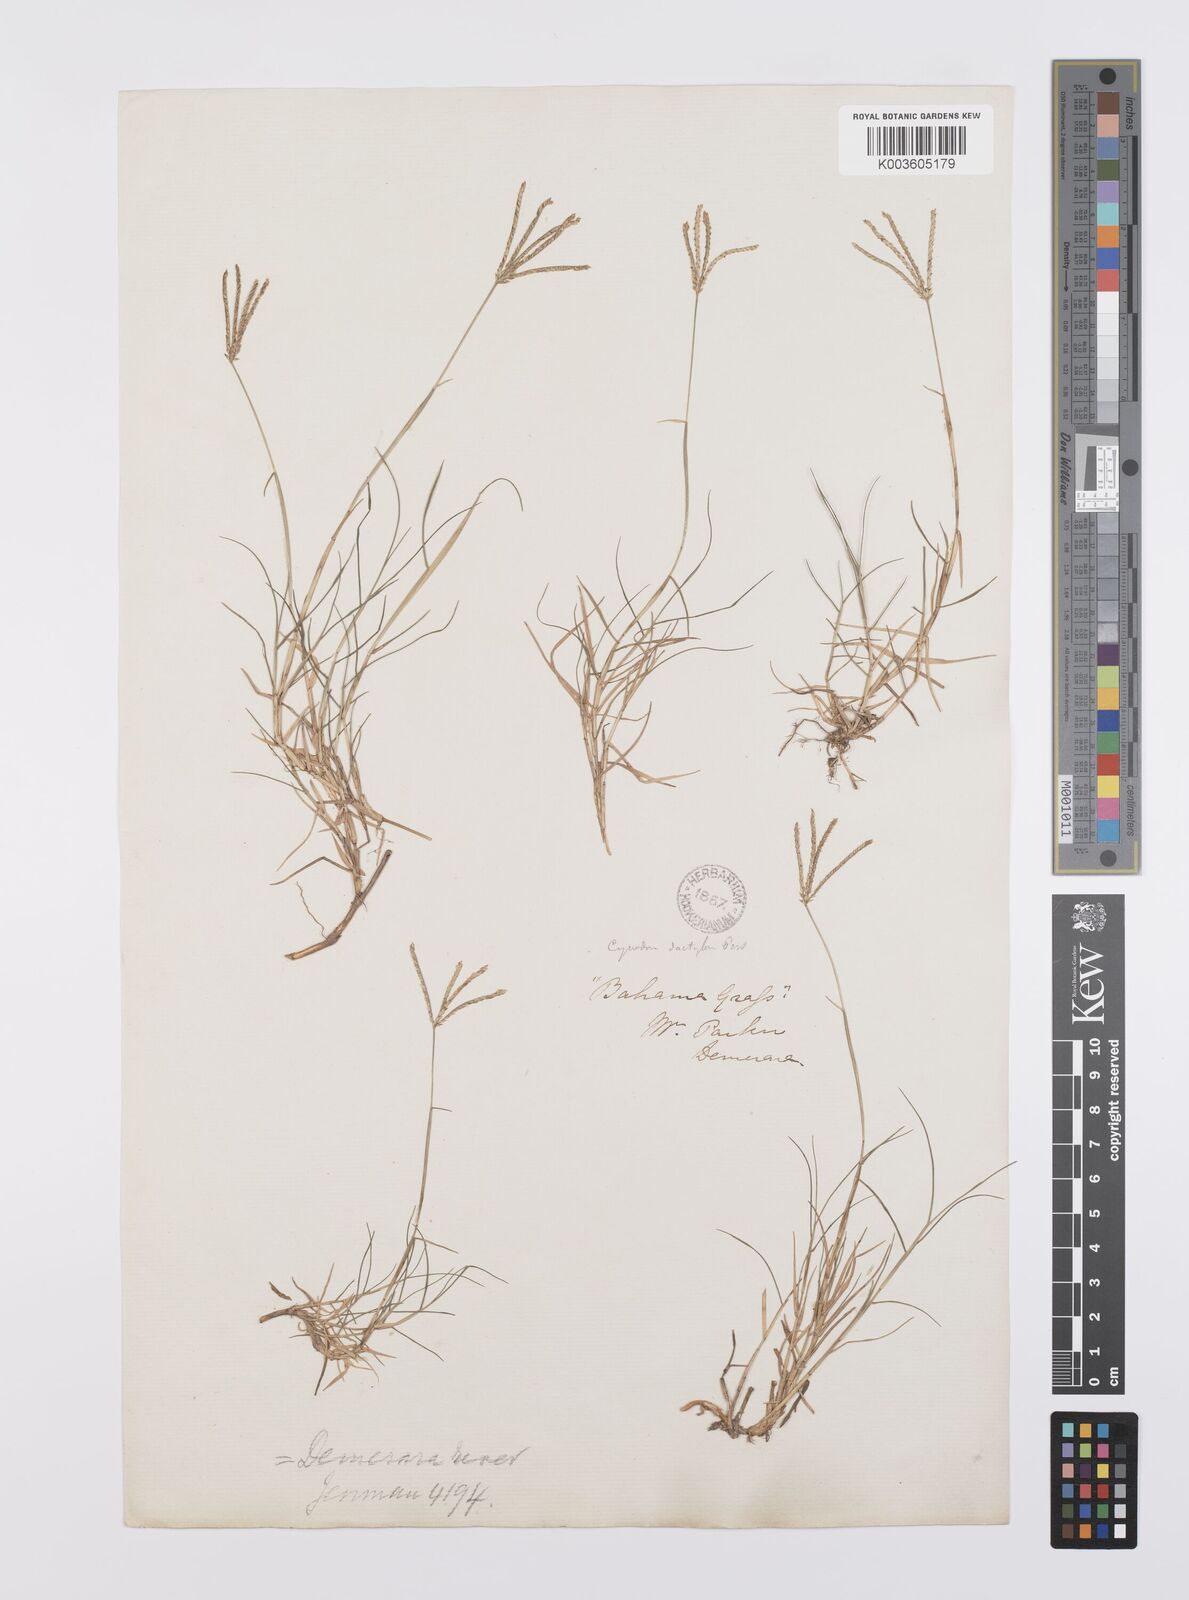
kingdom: Plantae
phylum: Tracheophyta
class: Liliopsida
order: Poales
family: Poaceae
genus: Cynodon
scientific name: Cynodon dactylon
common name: Bermuda grass
